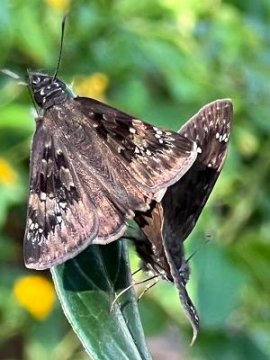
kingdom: Animalia
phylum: Arthropoda
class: Insecta
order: Lepidoptera
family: Hesperiidae
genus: Gesta
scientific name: Gesta
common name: Horace's Duskywing
